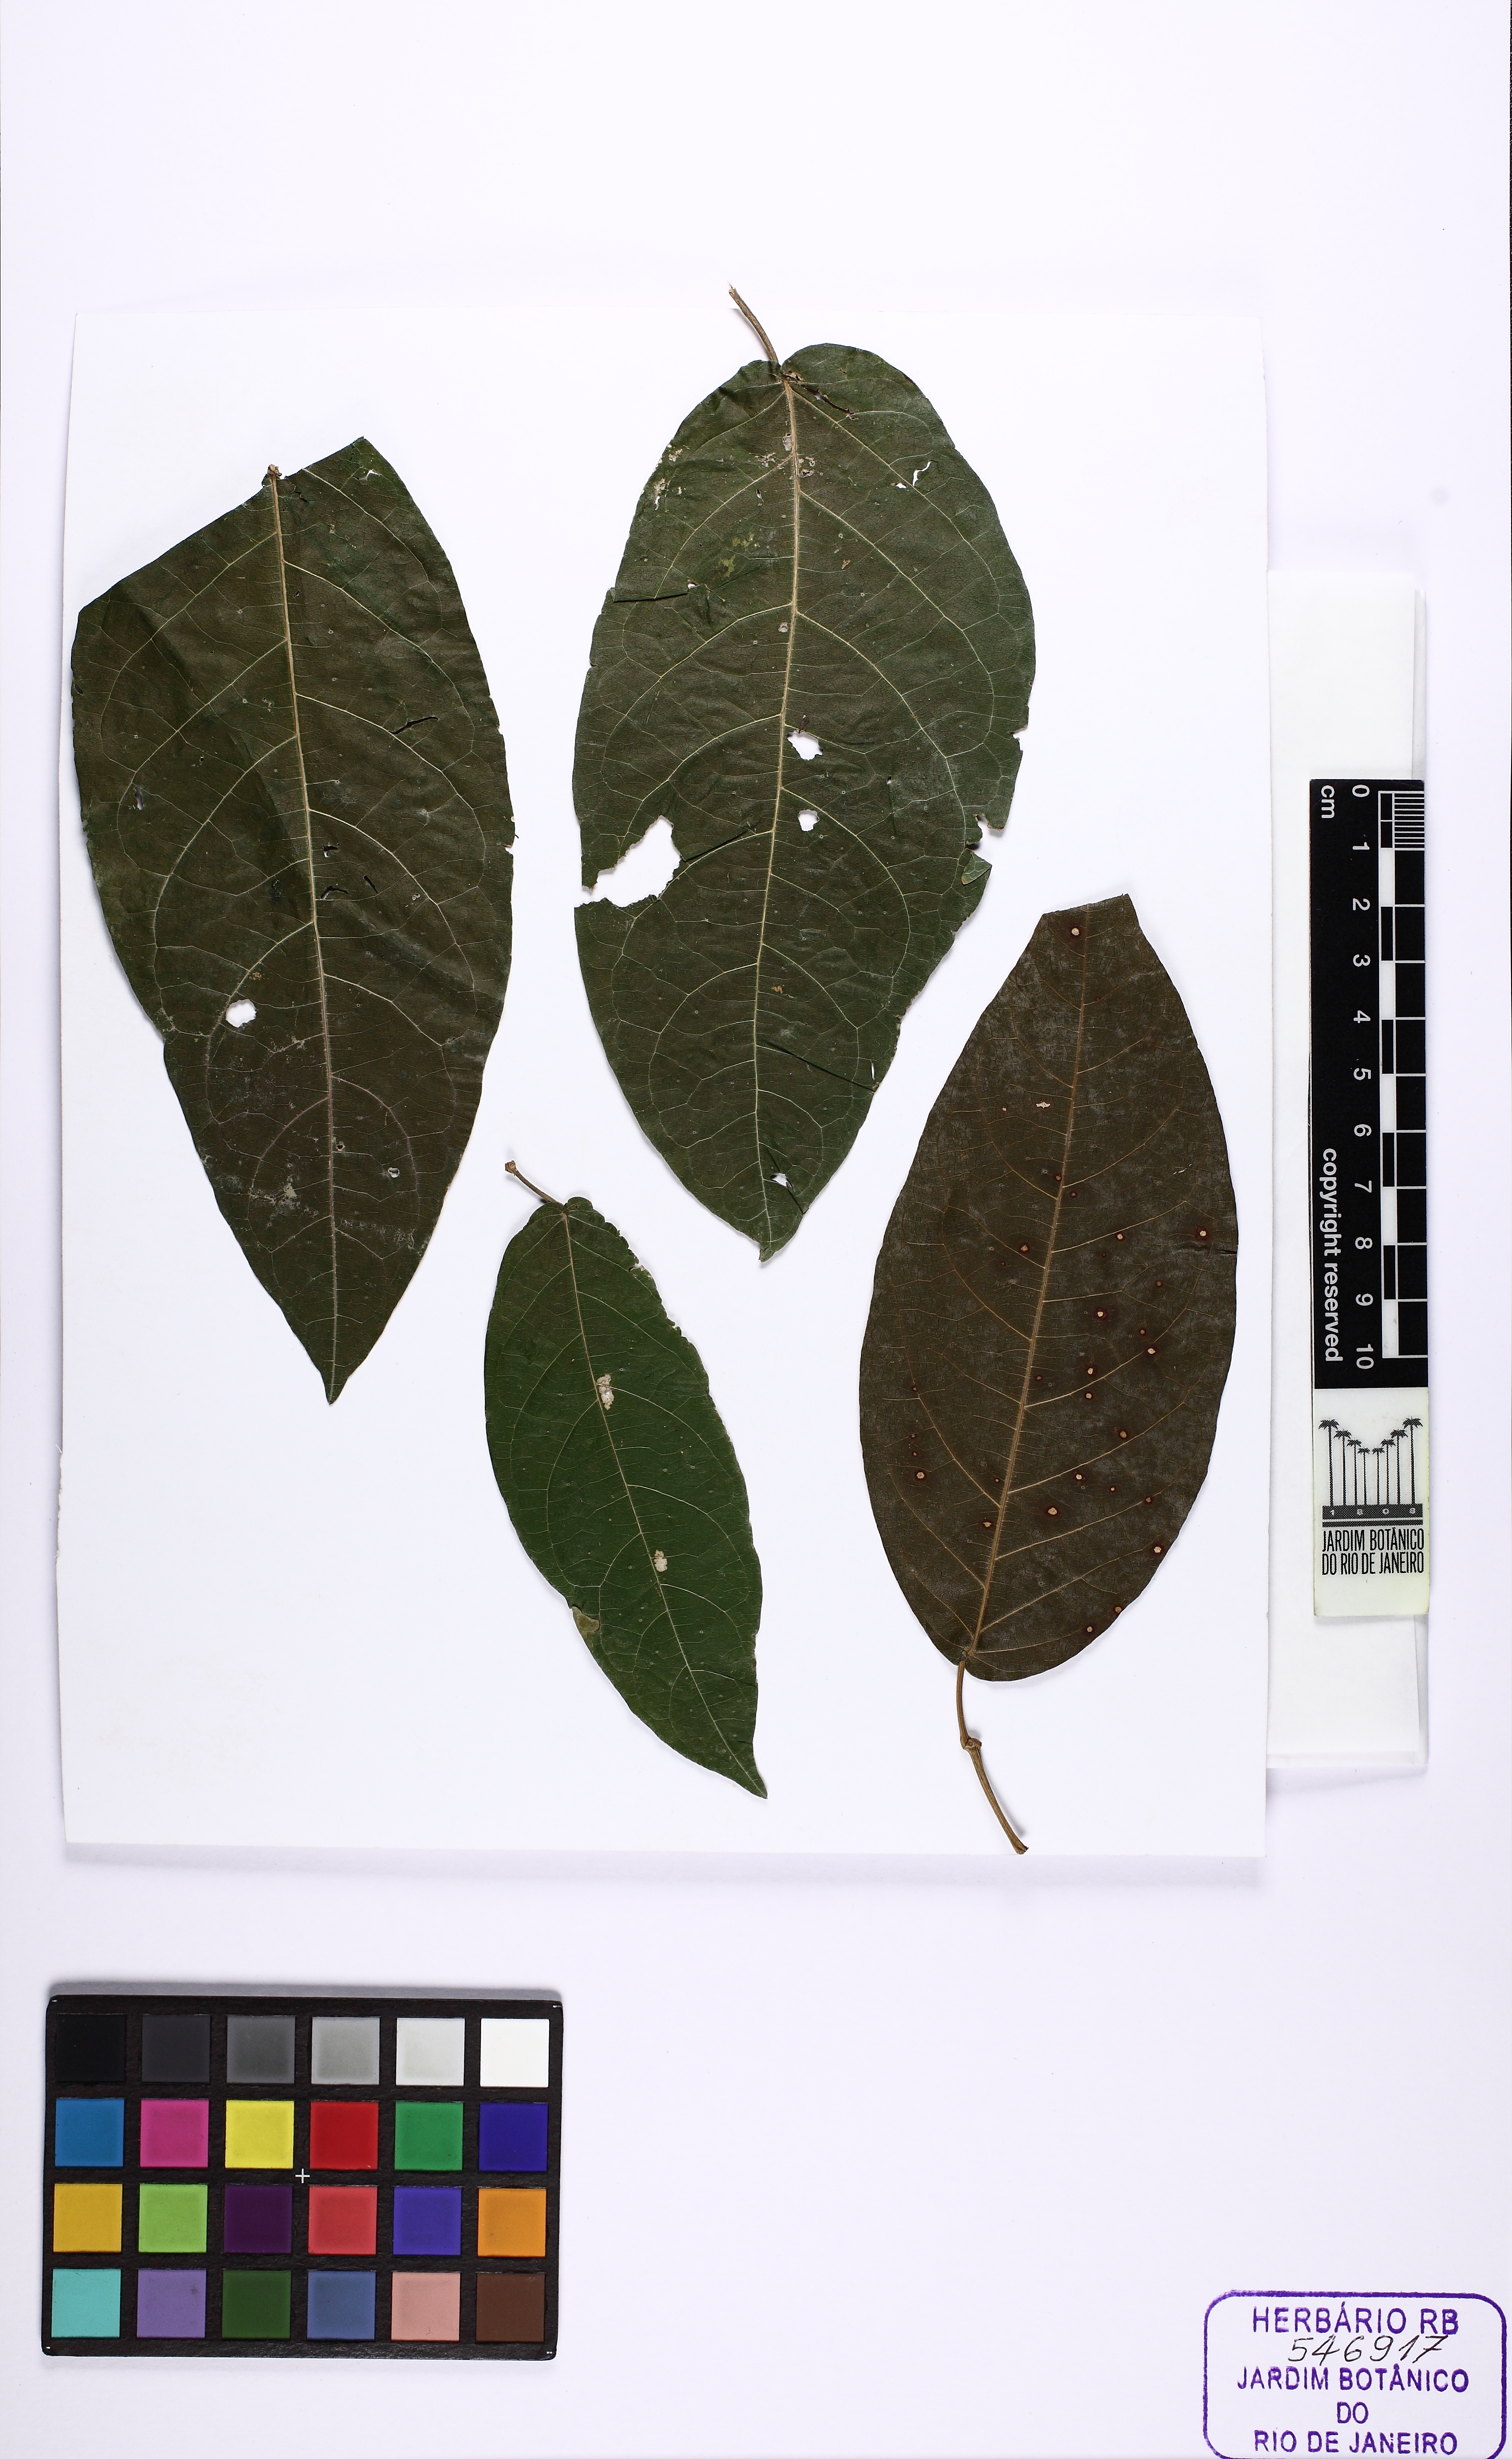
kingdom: Plantae
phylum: Tracheophyta
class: Magnoliopsida
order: Lamiales
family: Bignoniaceae
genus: Pachyptera
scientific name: Pachyptera kerere
